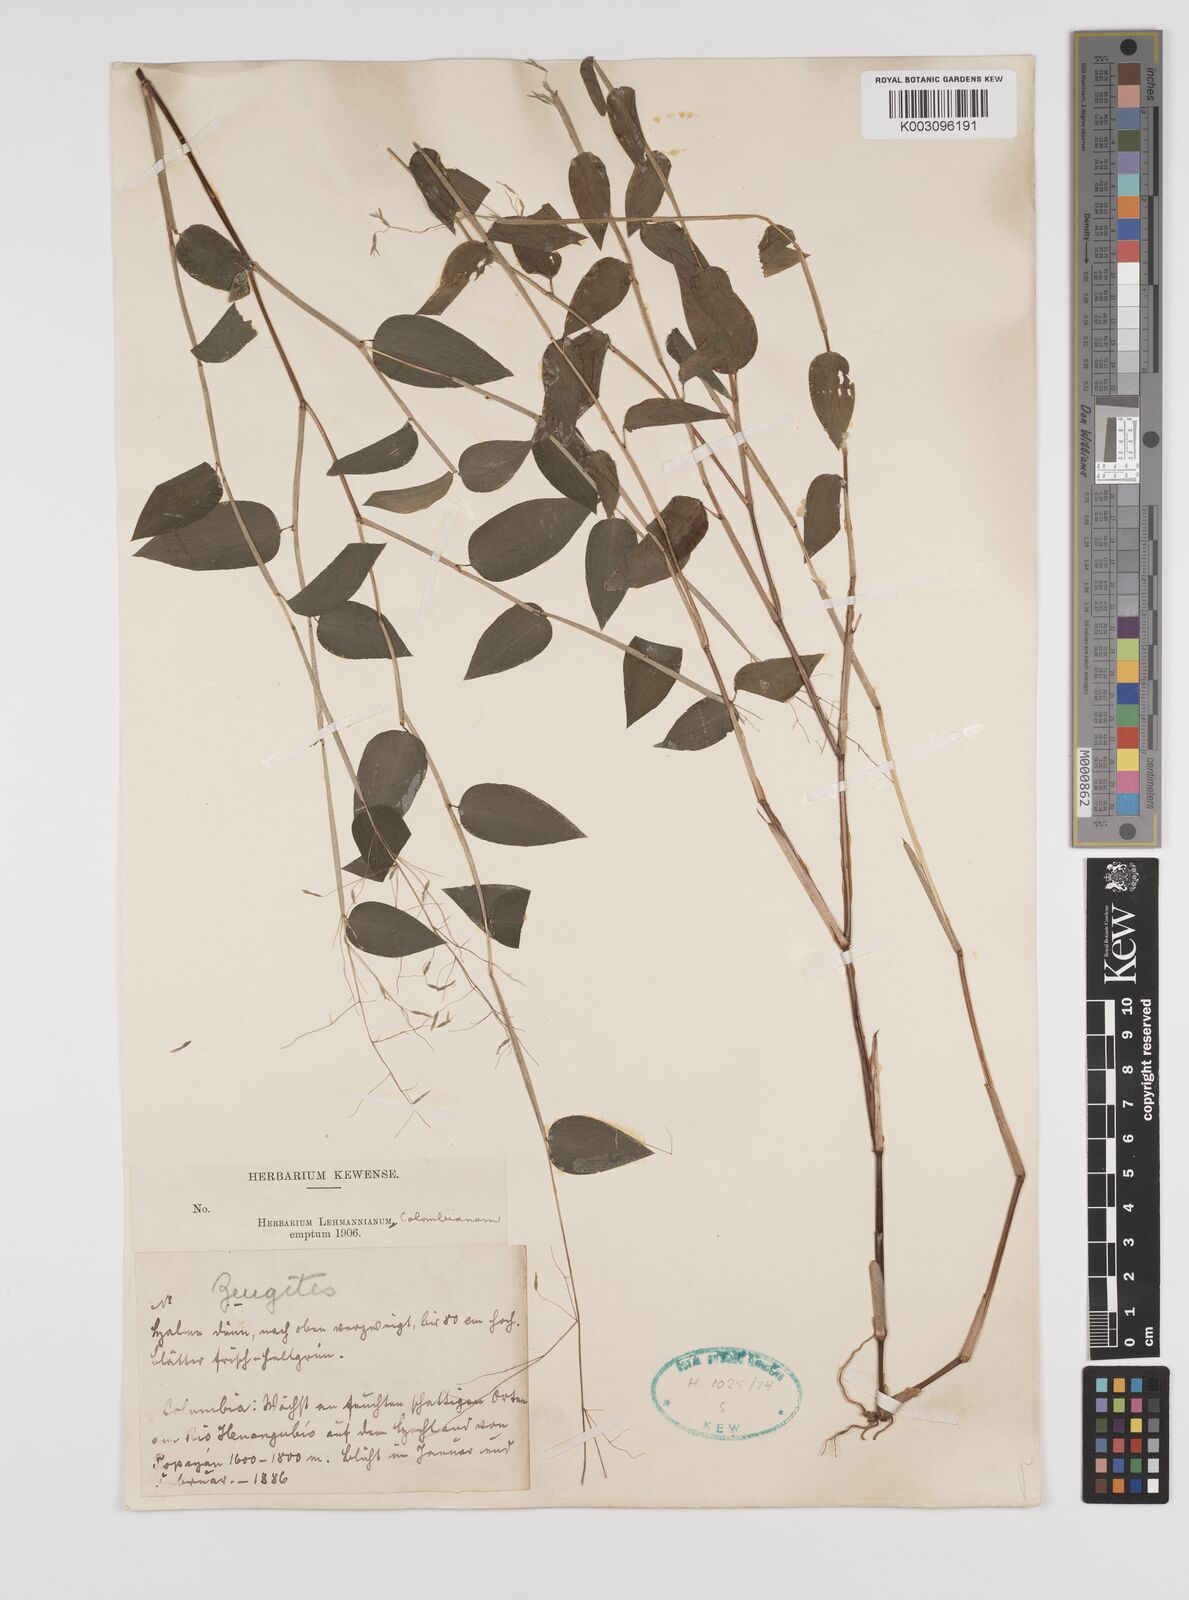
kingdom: Plantae
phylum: Tracheophyta
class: Liliopsida
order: Poales
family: Poaceae
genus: Zeugites
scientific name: Zeugites americanus
